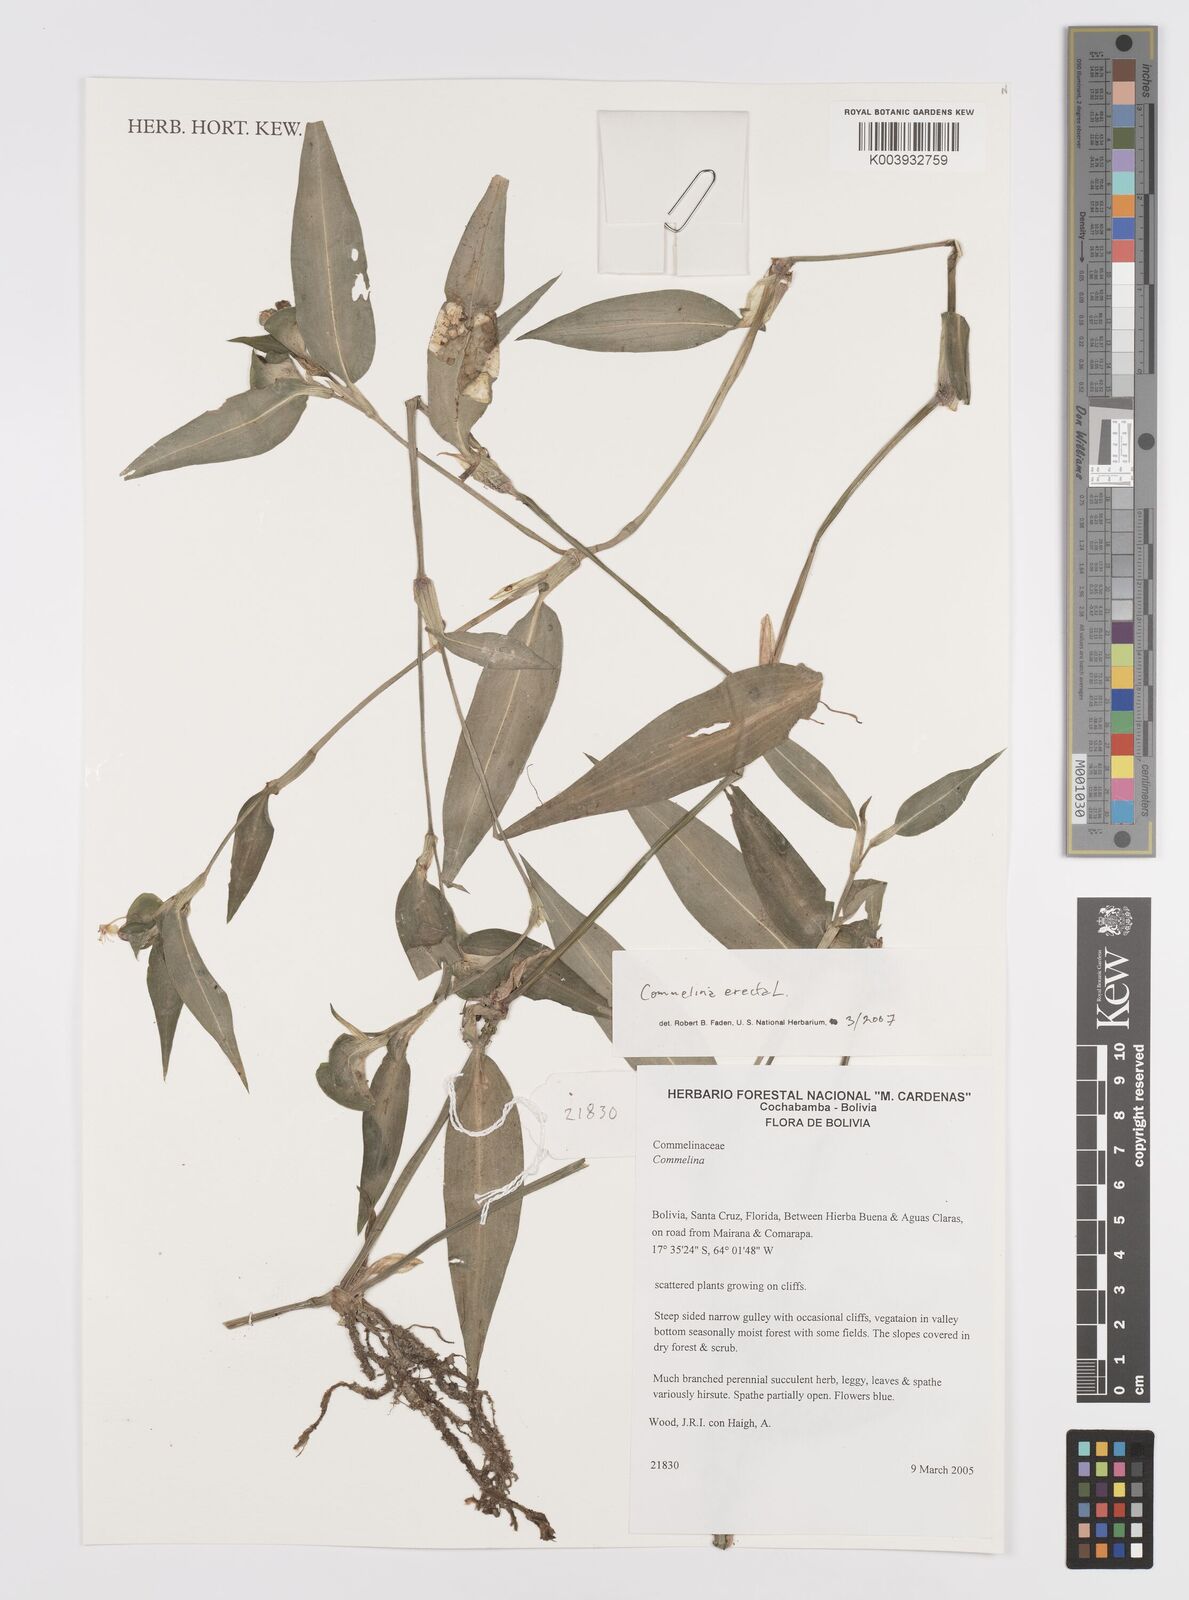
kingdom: Plantae
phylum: Tracheophyta
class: Liliopsida
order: Commelinales
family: Commelinaceae
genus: Commelina
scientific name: Commelina erecta
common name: Blousel blommetjie
